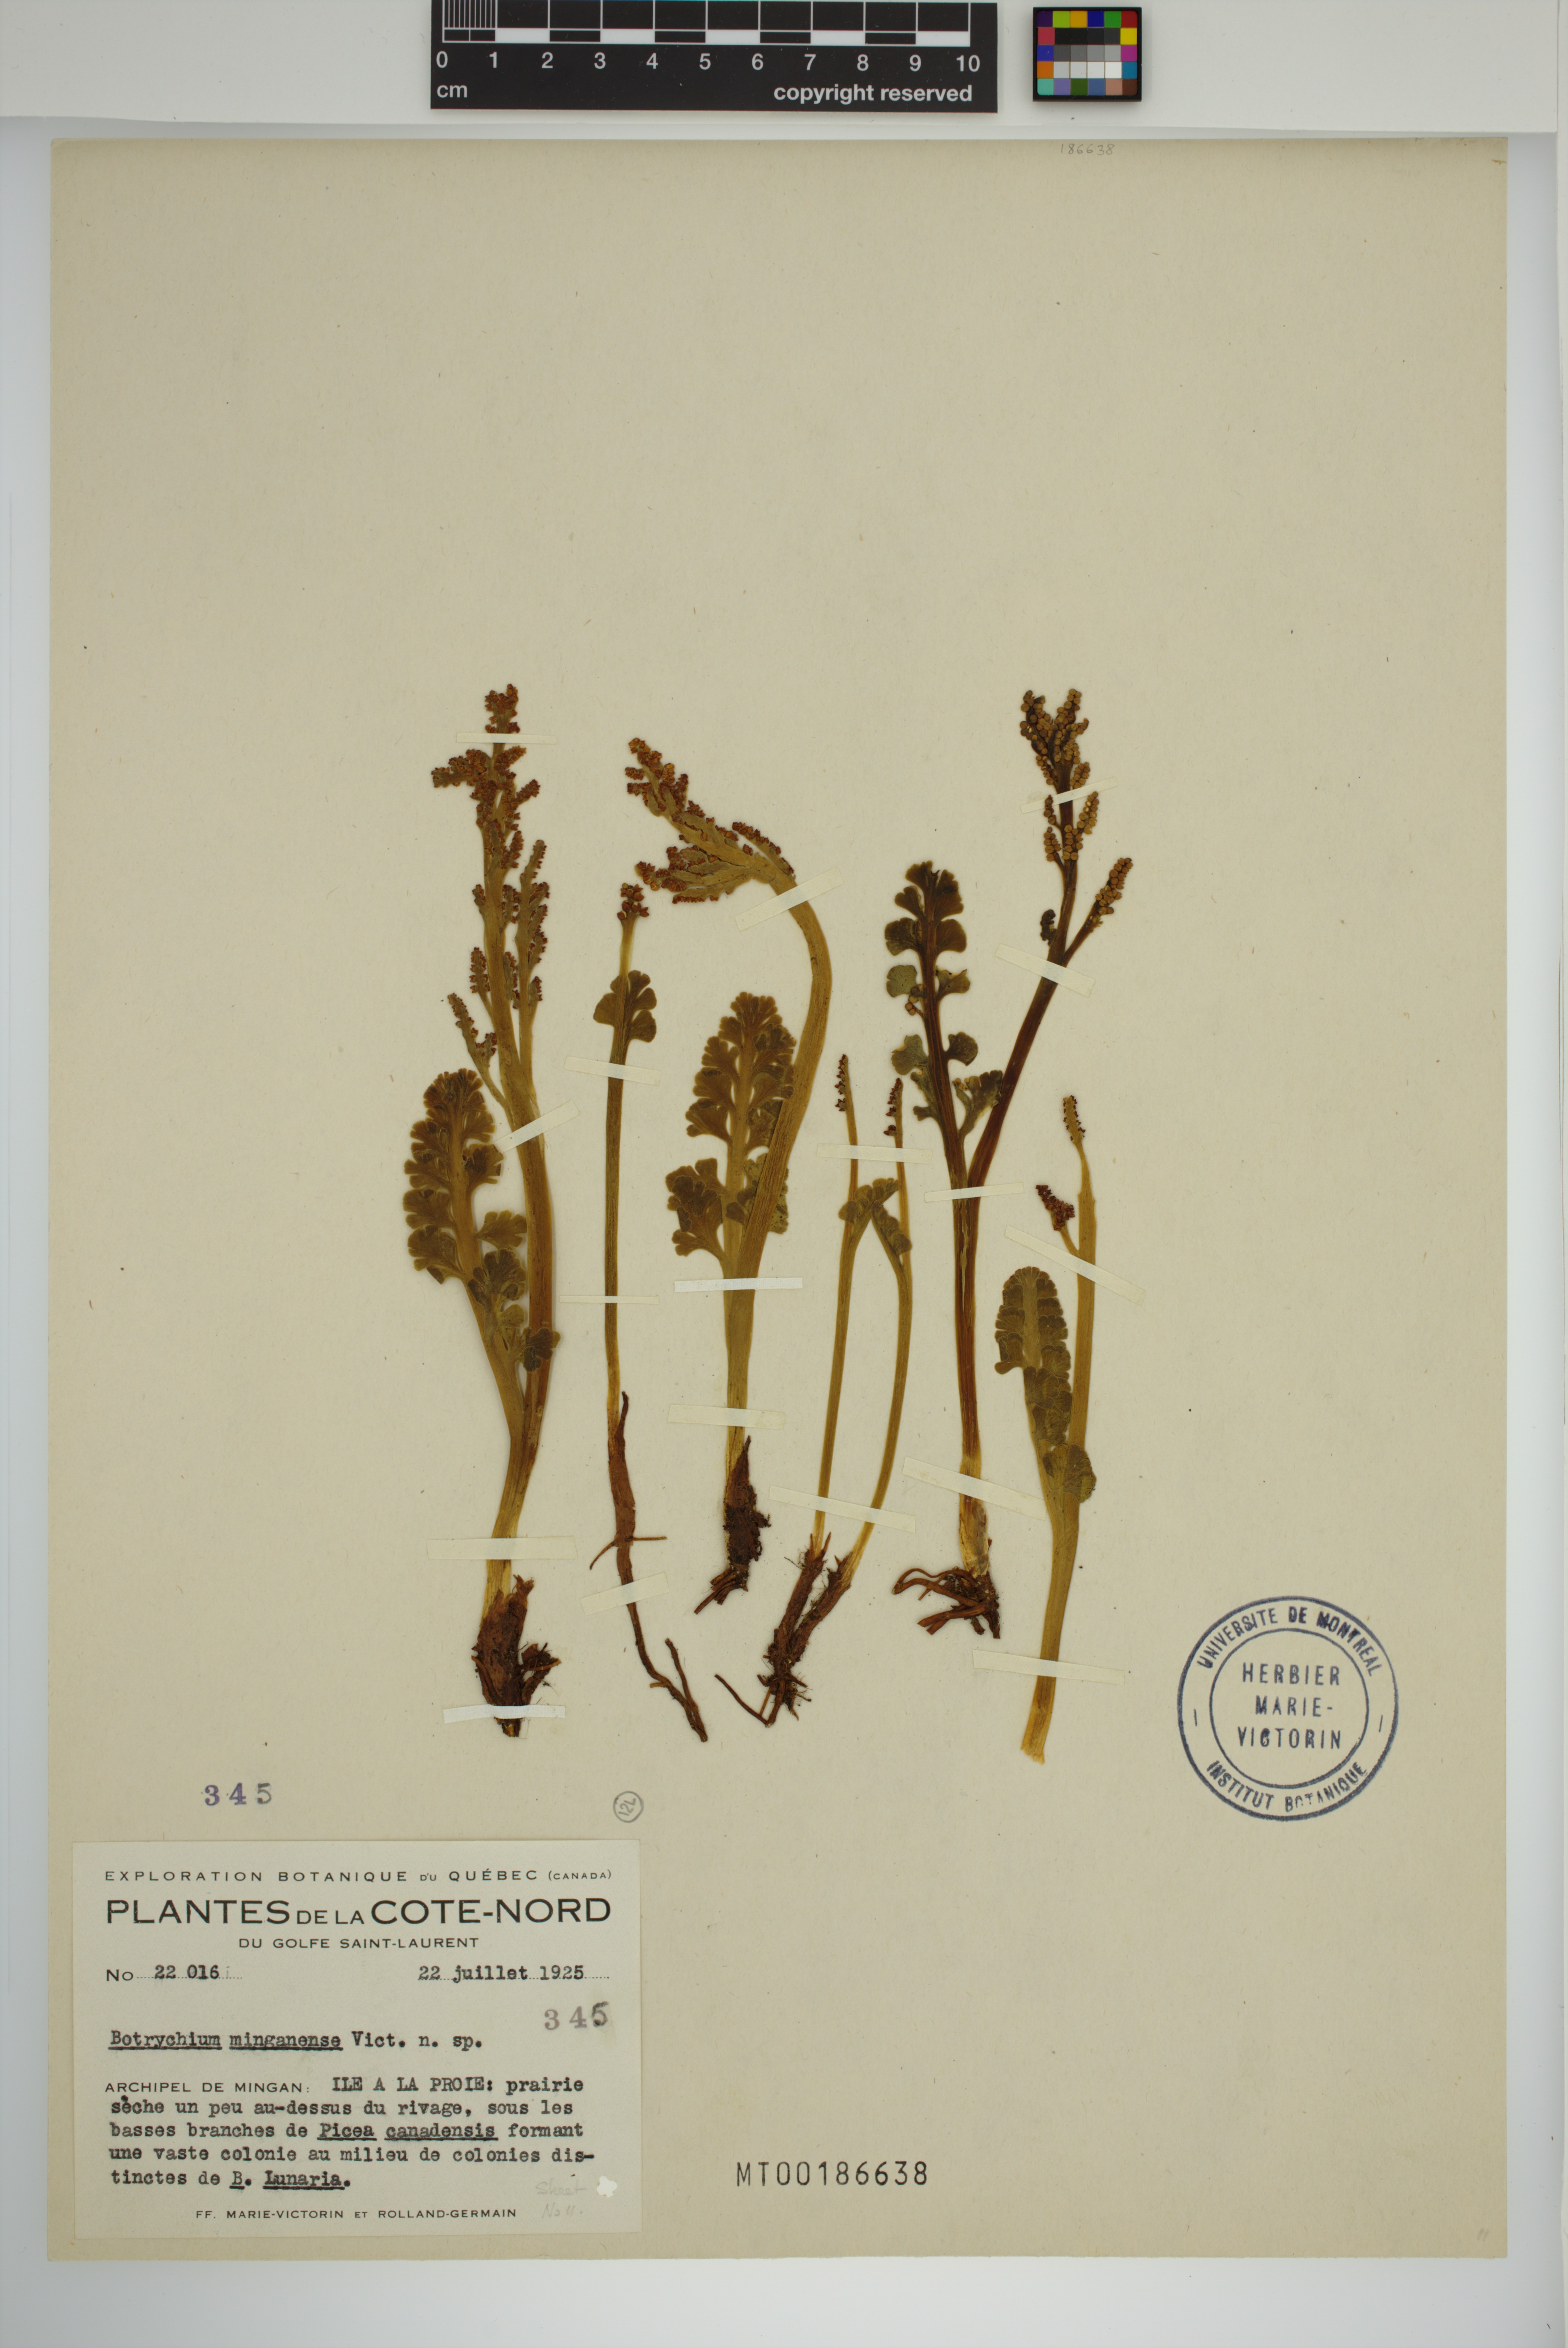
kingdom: Plantae
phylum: Tracheophyta
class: Polypodiopsida
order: Ophioglossales
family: Ophioglossaceae
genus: Botrychium
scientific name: Botrychium minganense
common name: Mingan grapefern
